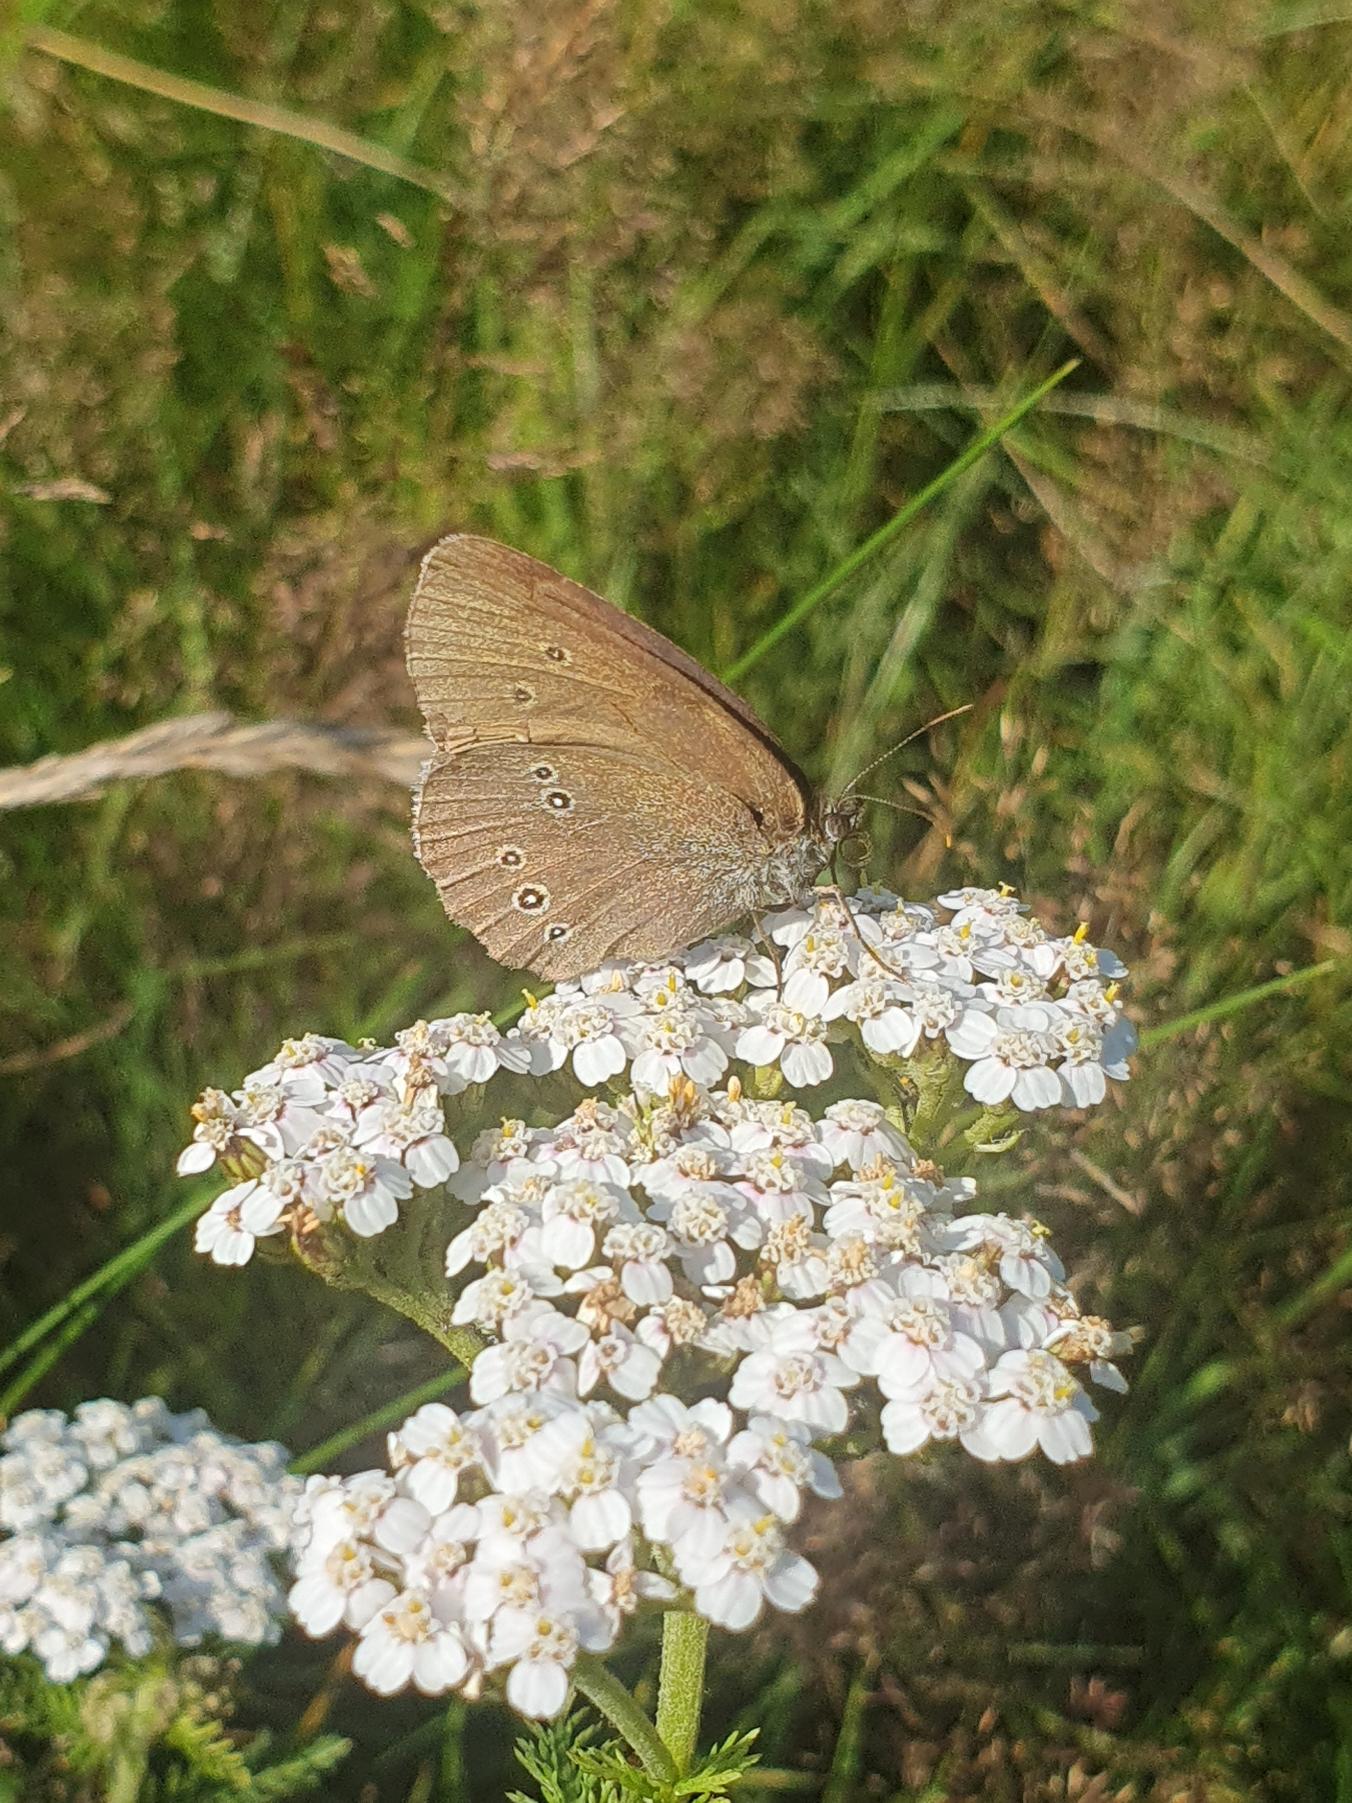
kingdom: Animalia
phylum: Arthropoda
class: Insecta
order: Lepidoptera
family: Nymphalidae
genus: Aphantopus
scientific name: Aphantopus hyperantus
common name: Engrandøje
